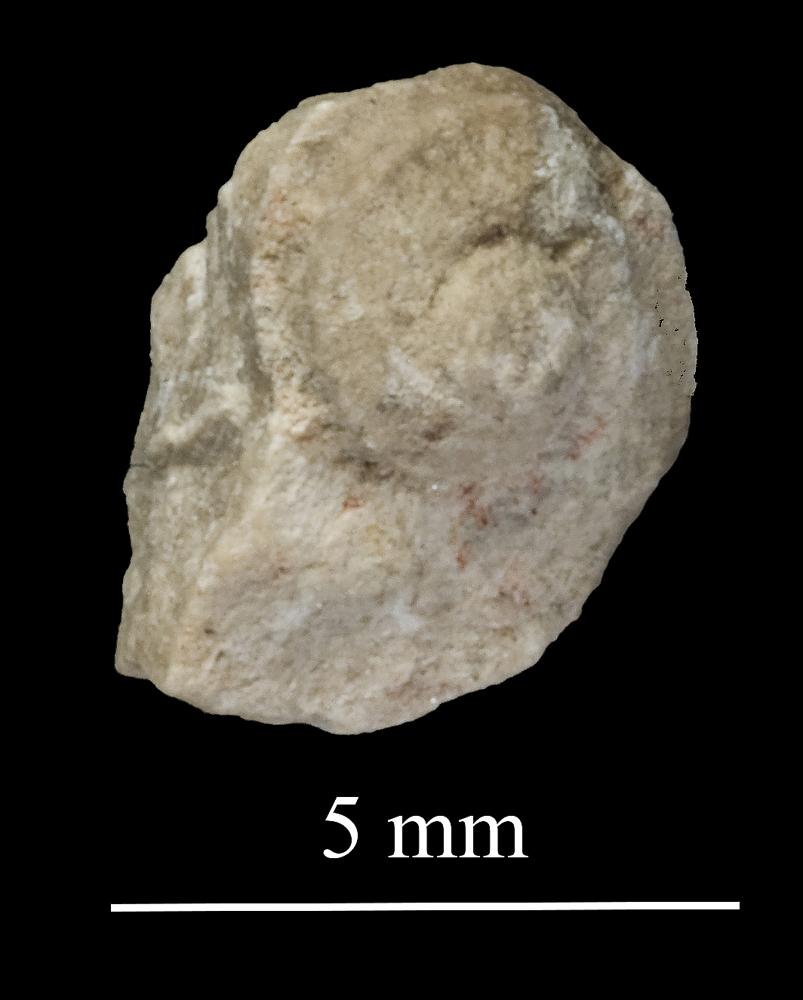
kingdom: Animalia
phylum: Mollusca
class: Gastropoda
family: Trochonematidae
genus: Trochonema
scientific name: Trochonema panderi
